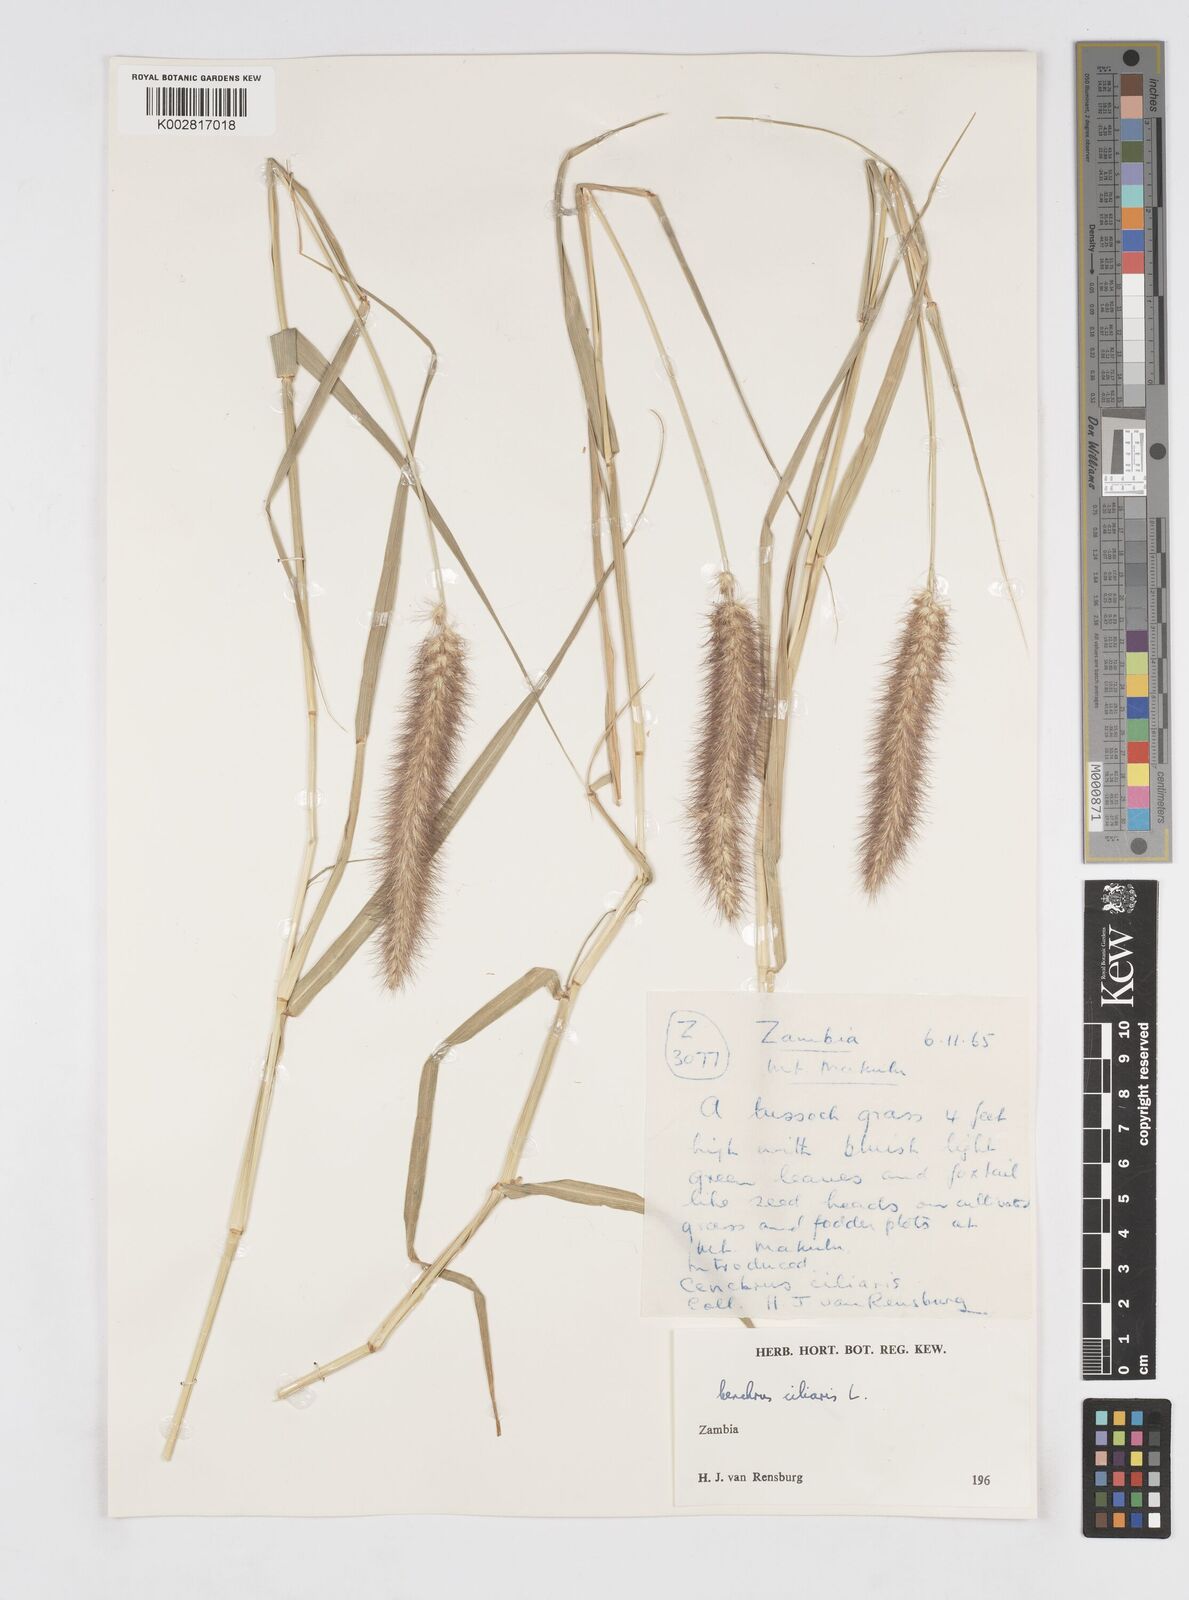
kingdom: Plantae
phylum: Tracheophyta
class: Liliopsida
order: Poales
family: Poaceae
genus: Cenchrus
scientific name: Cenchrus ciliaris
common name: Buffelgrass
